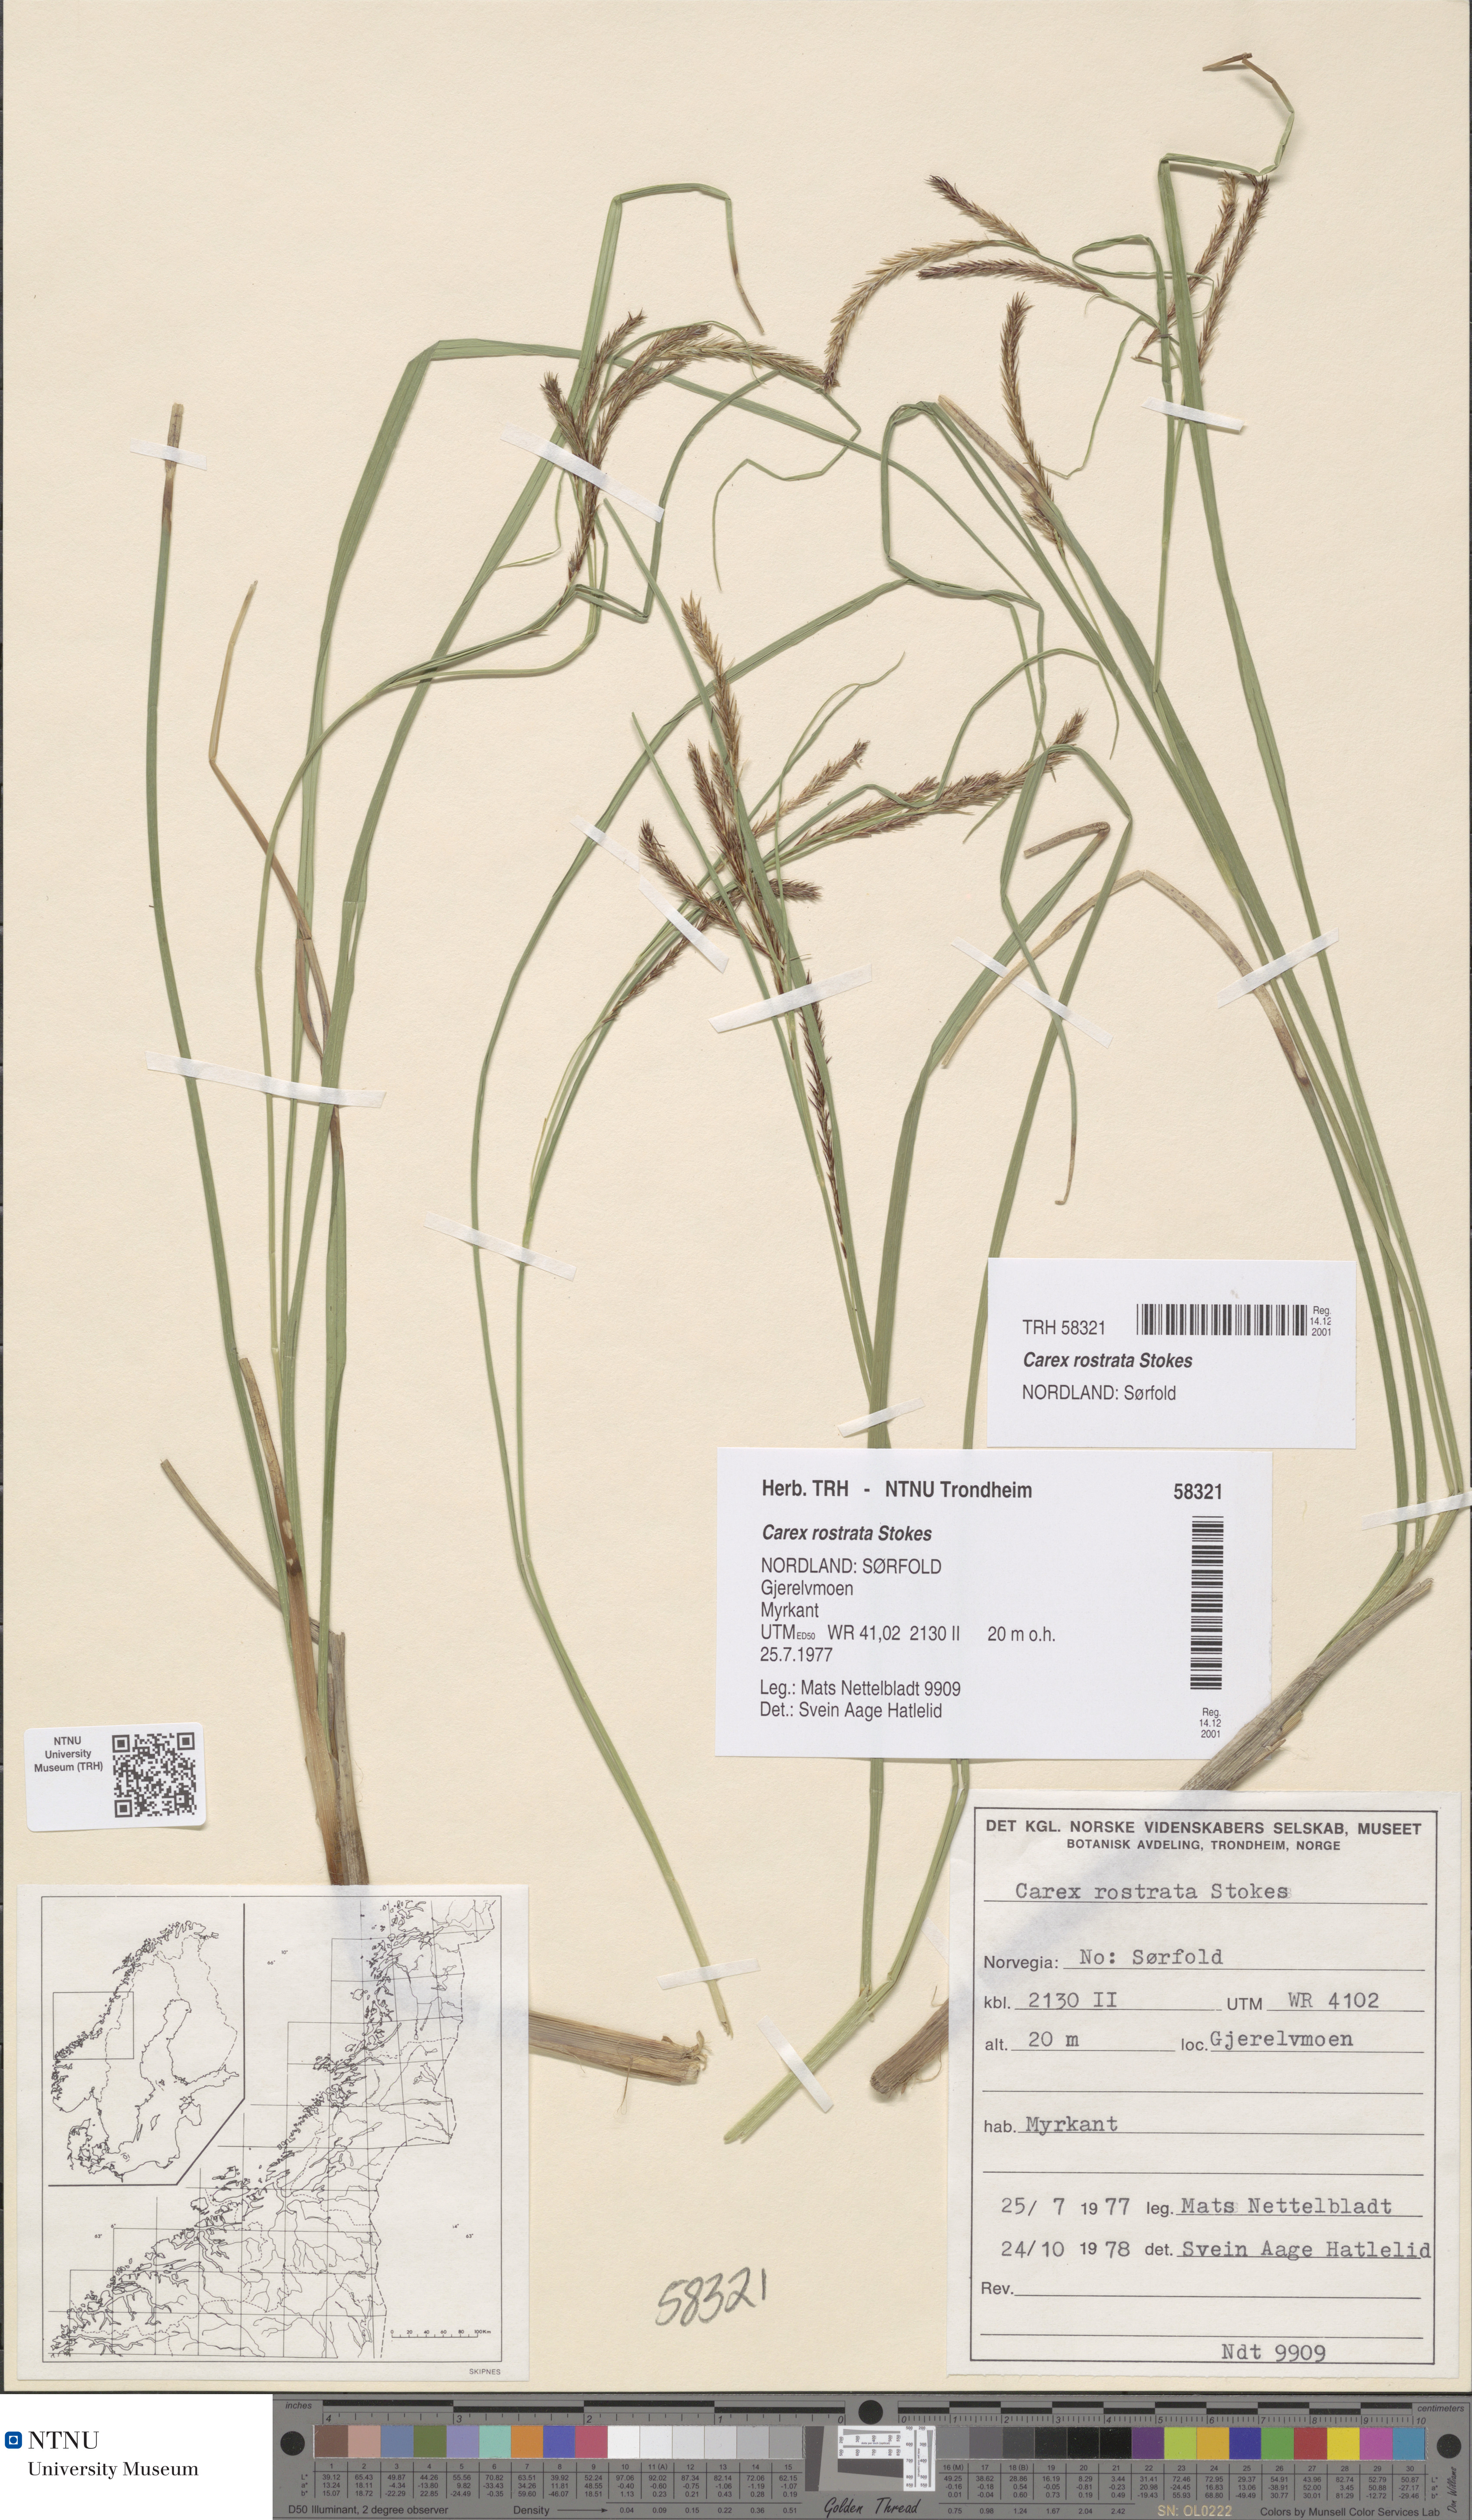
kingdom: Plantae
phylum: Tracheophyta
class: Liliopsida
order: Poales
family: Cyperaceae
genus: Carex
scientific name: Carex rostrata
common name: Bottle sedge
